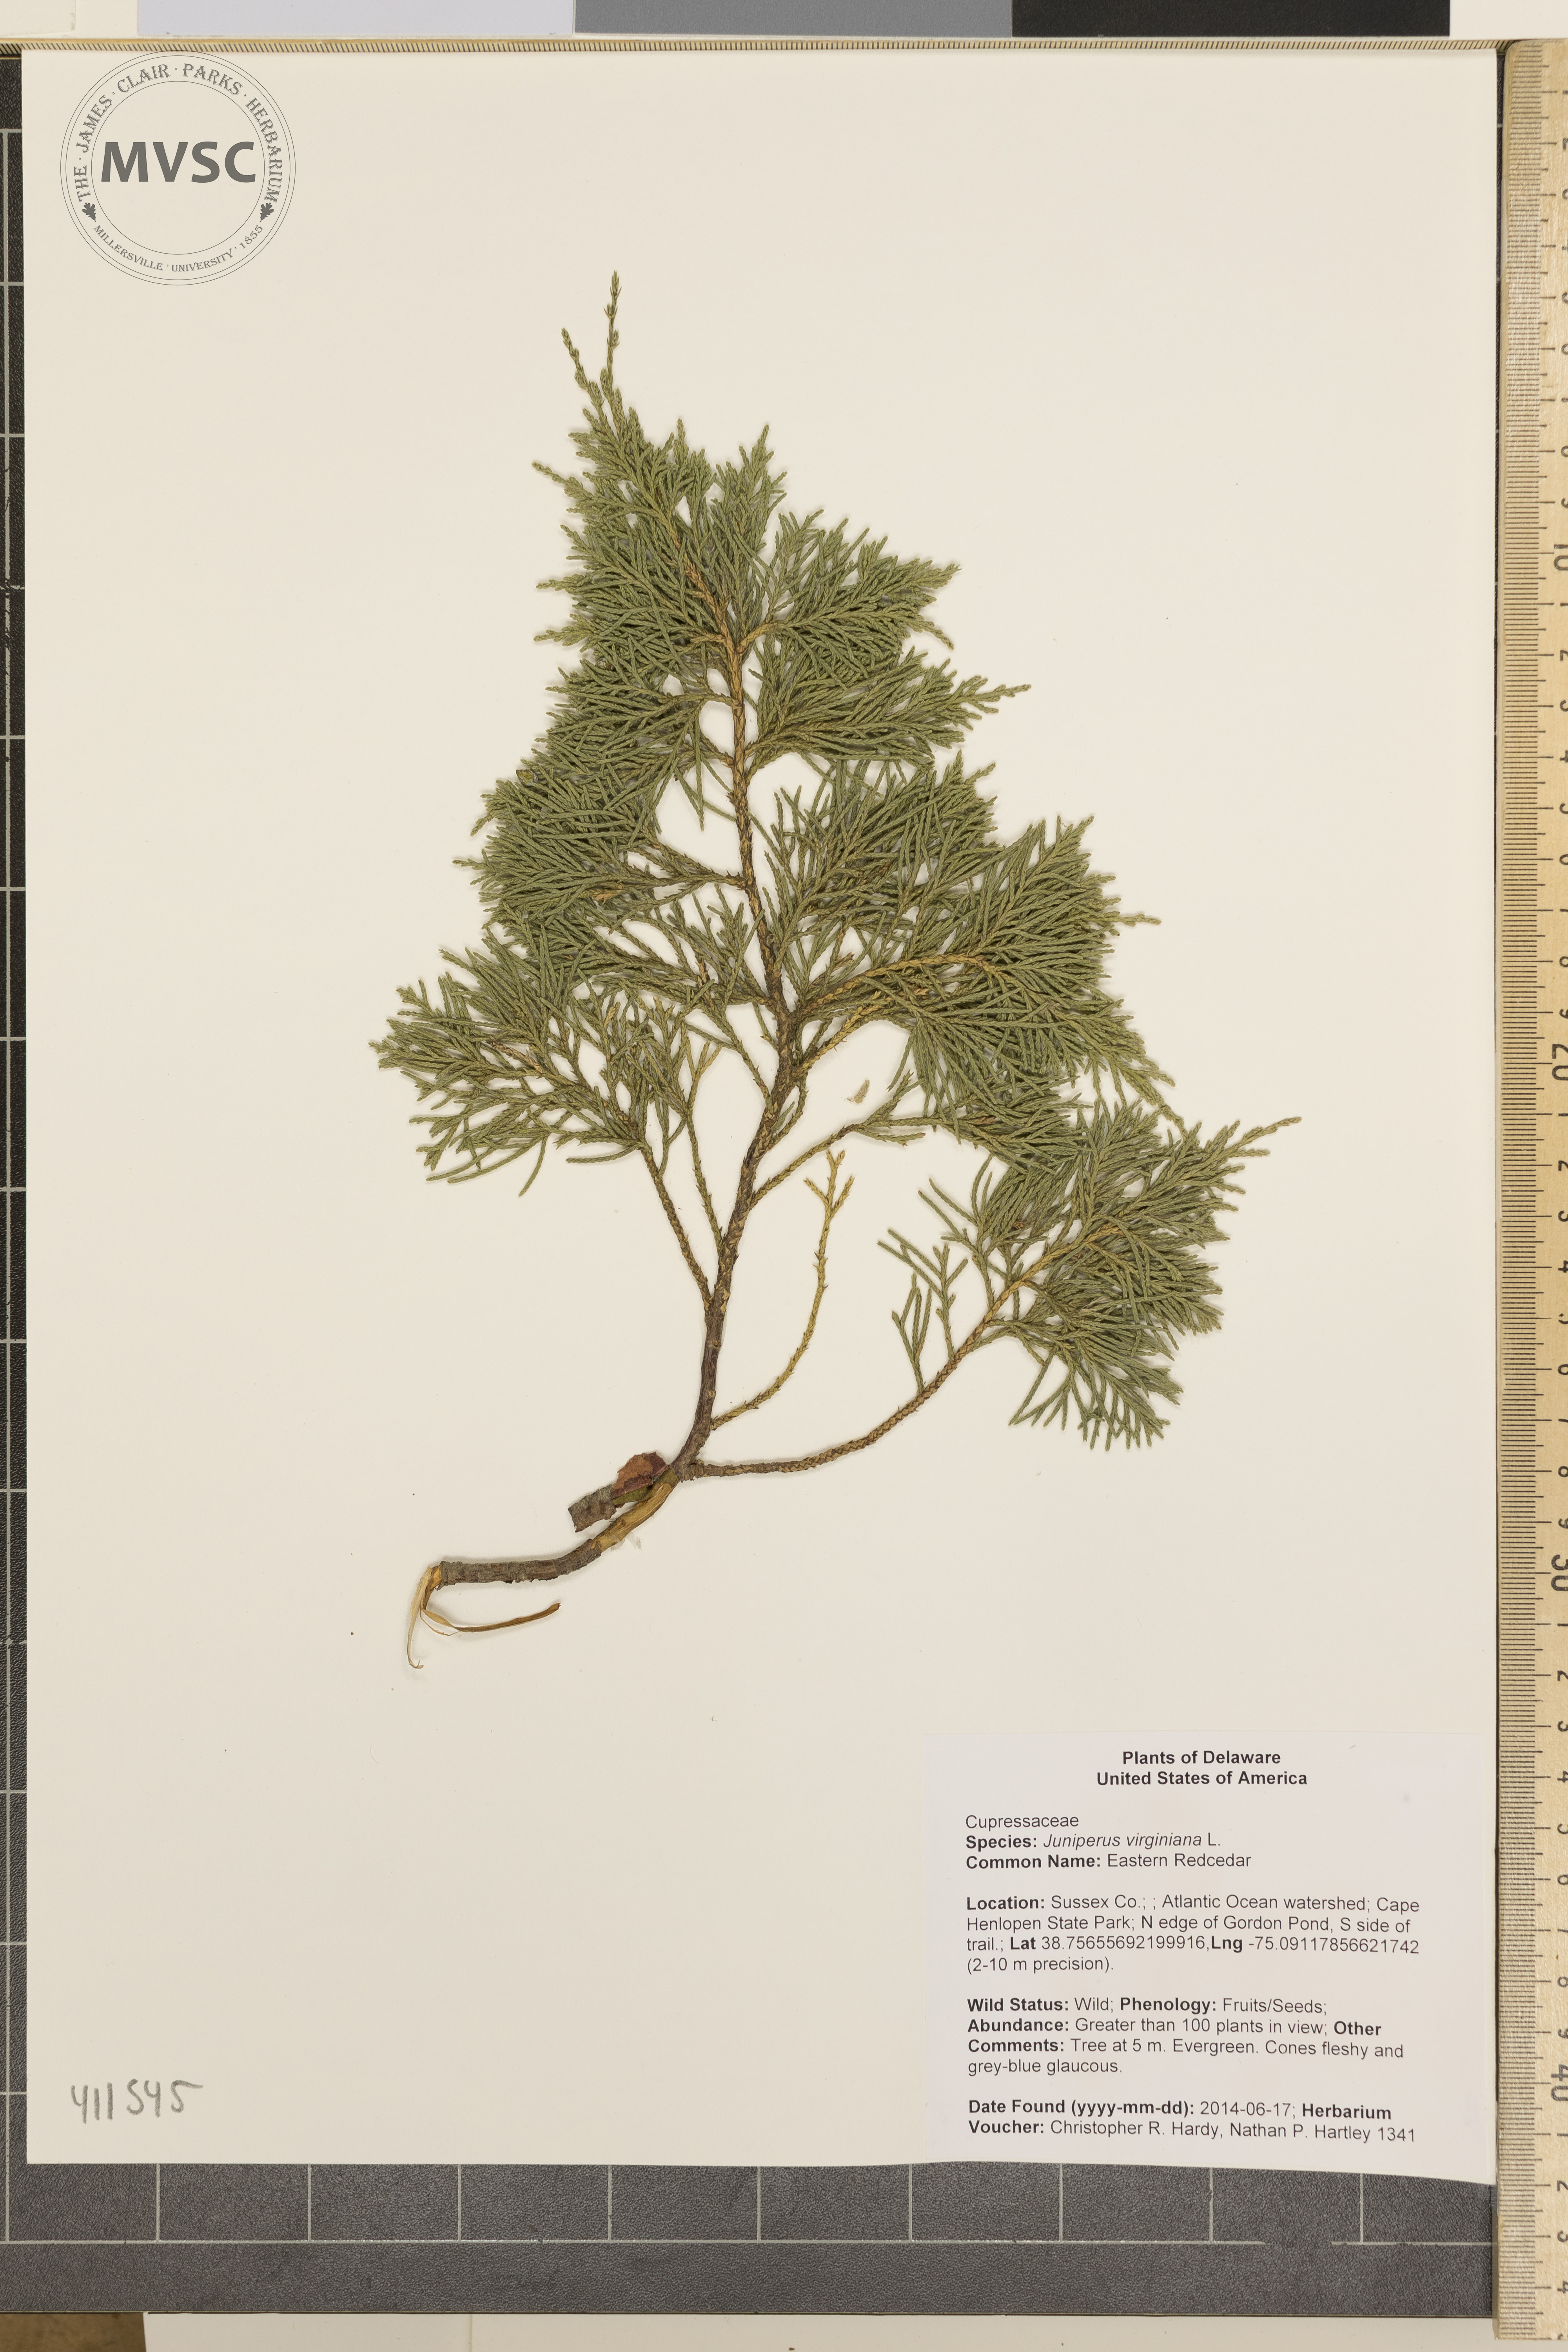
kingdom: Plantae
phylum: Tracheophyta
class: Pinopsida
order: Pinales
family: Cupressaceae
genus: Juniperus
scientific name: Juniperus virginiana
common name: Eastern Redcedar
